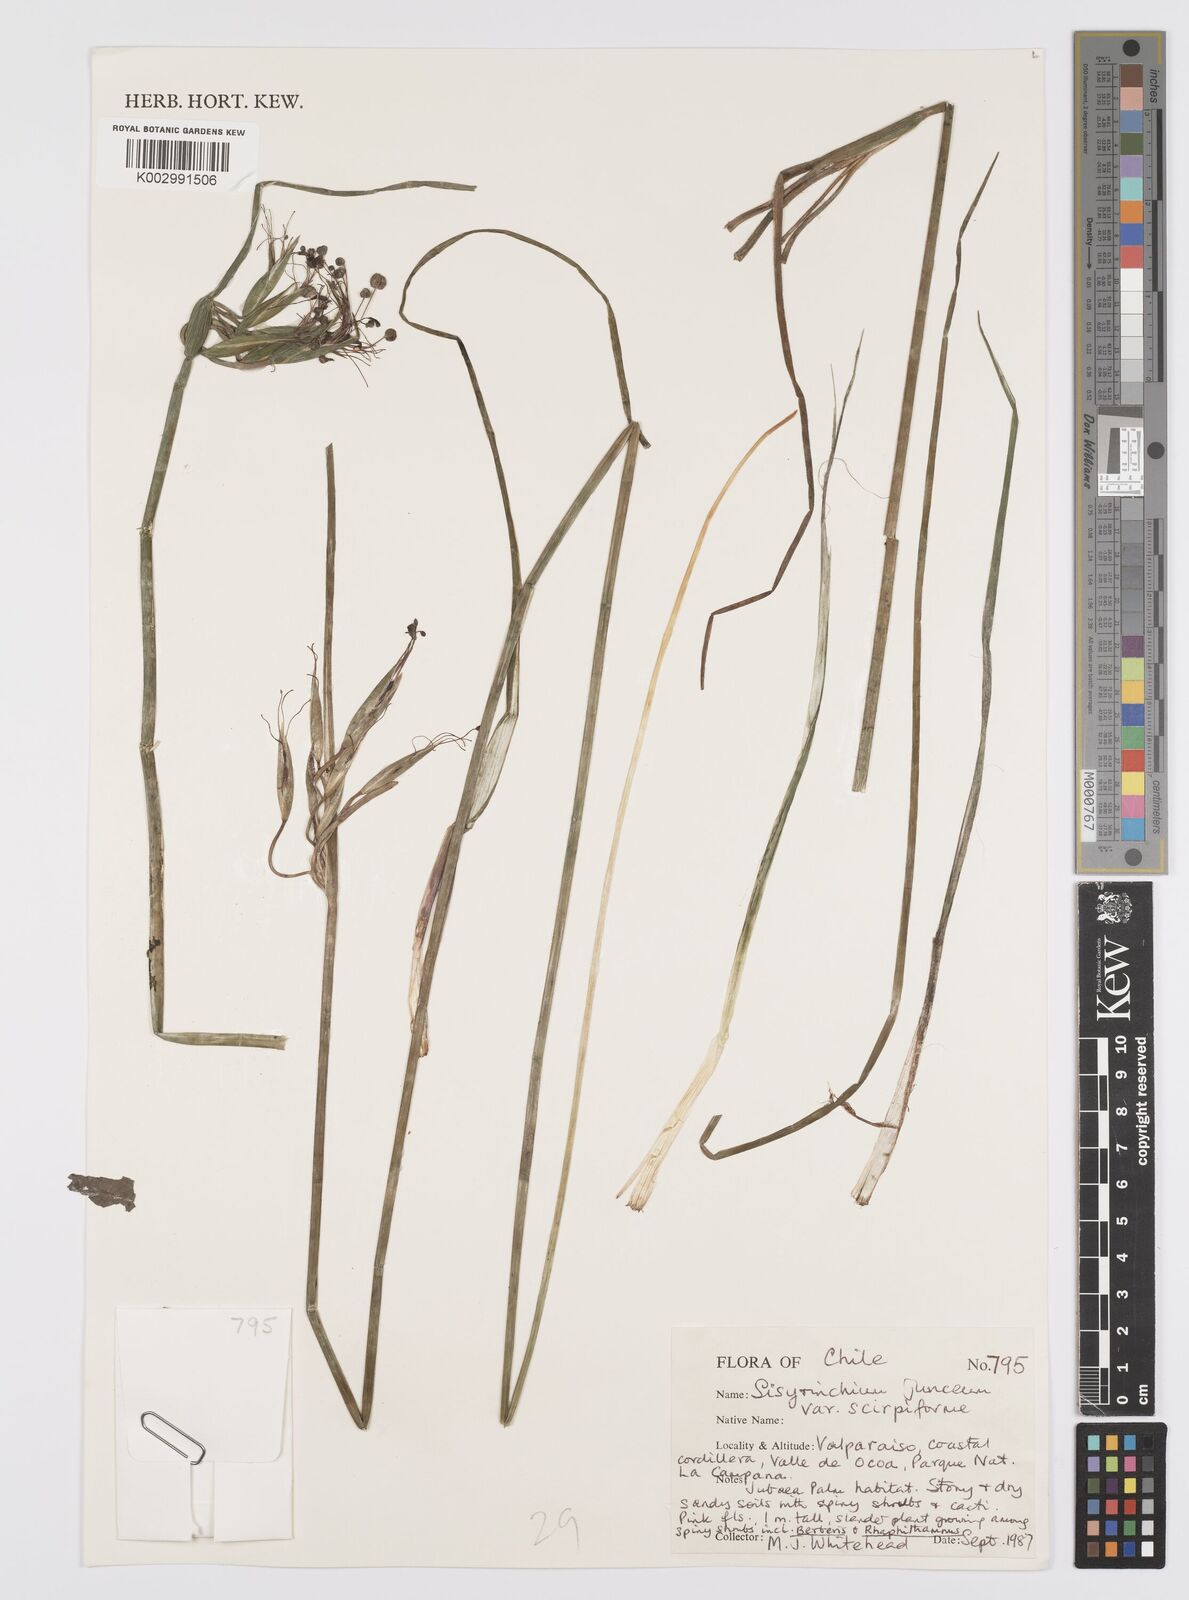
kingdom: Plantae
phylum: Tracheophyta
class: Liliopsida
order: Asparagales
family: Iridaceae
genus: Olsynium
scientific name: Olsynium junceum
